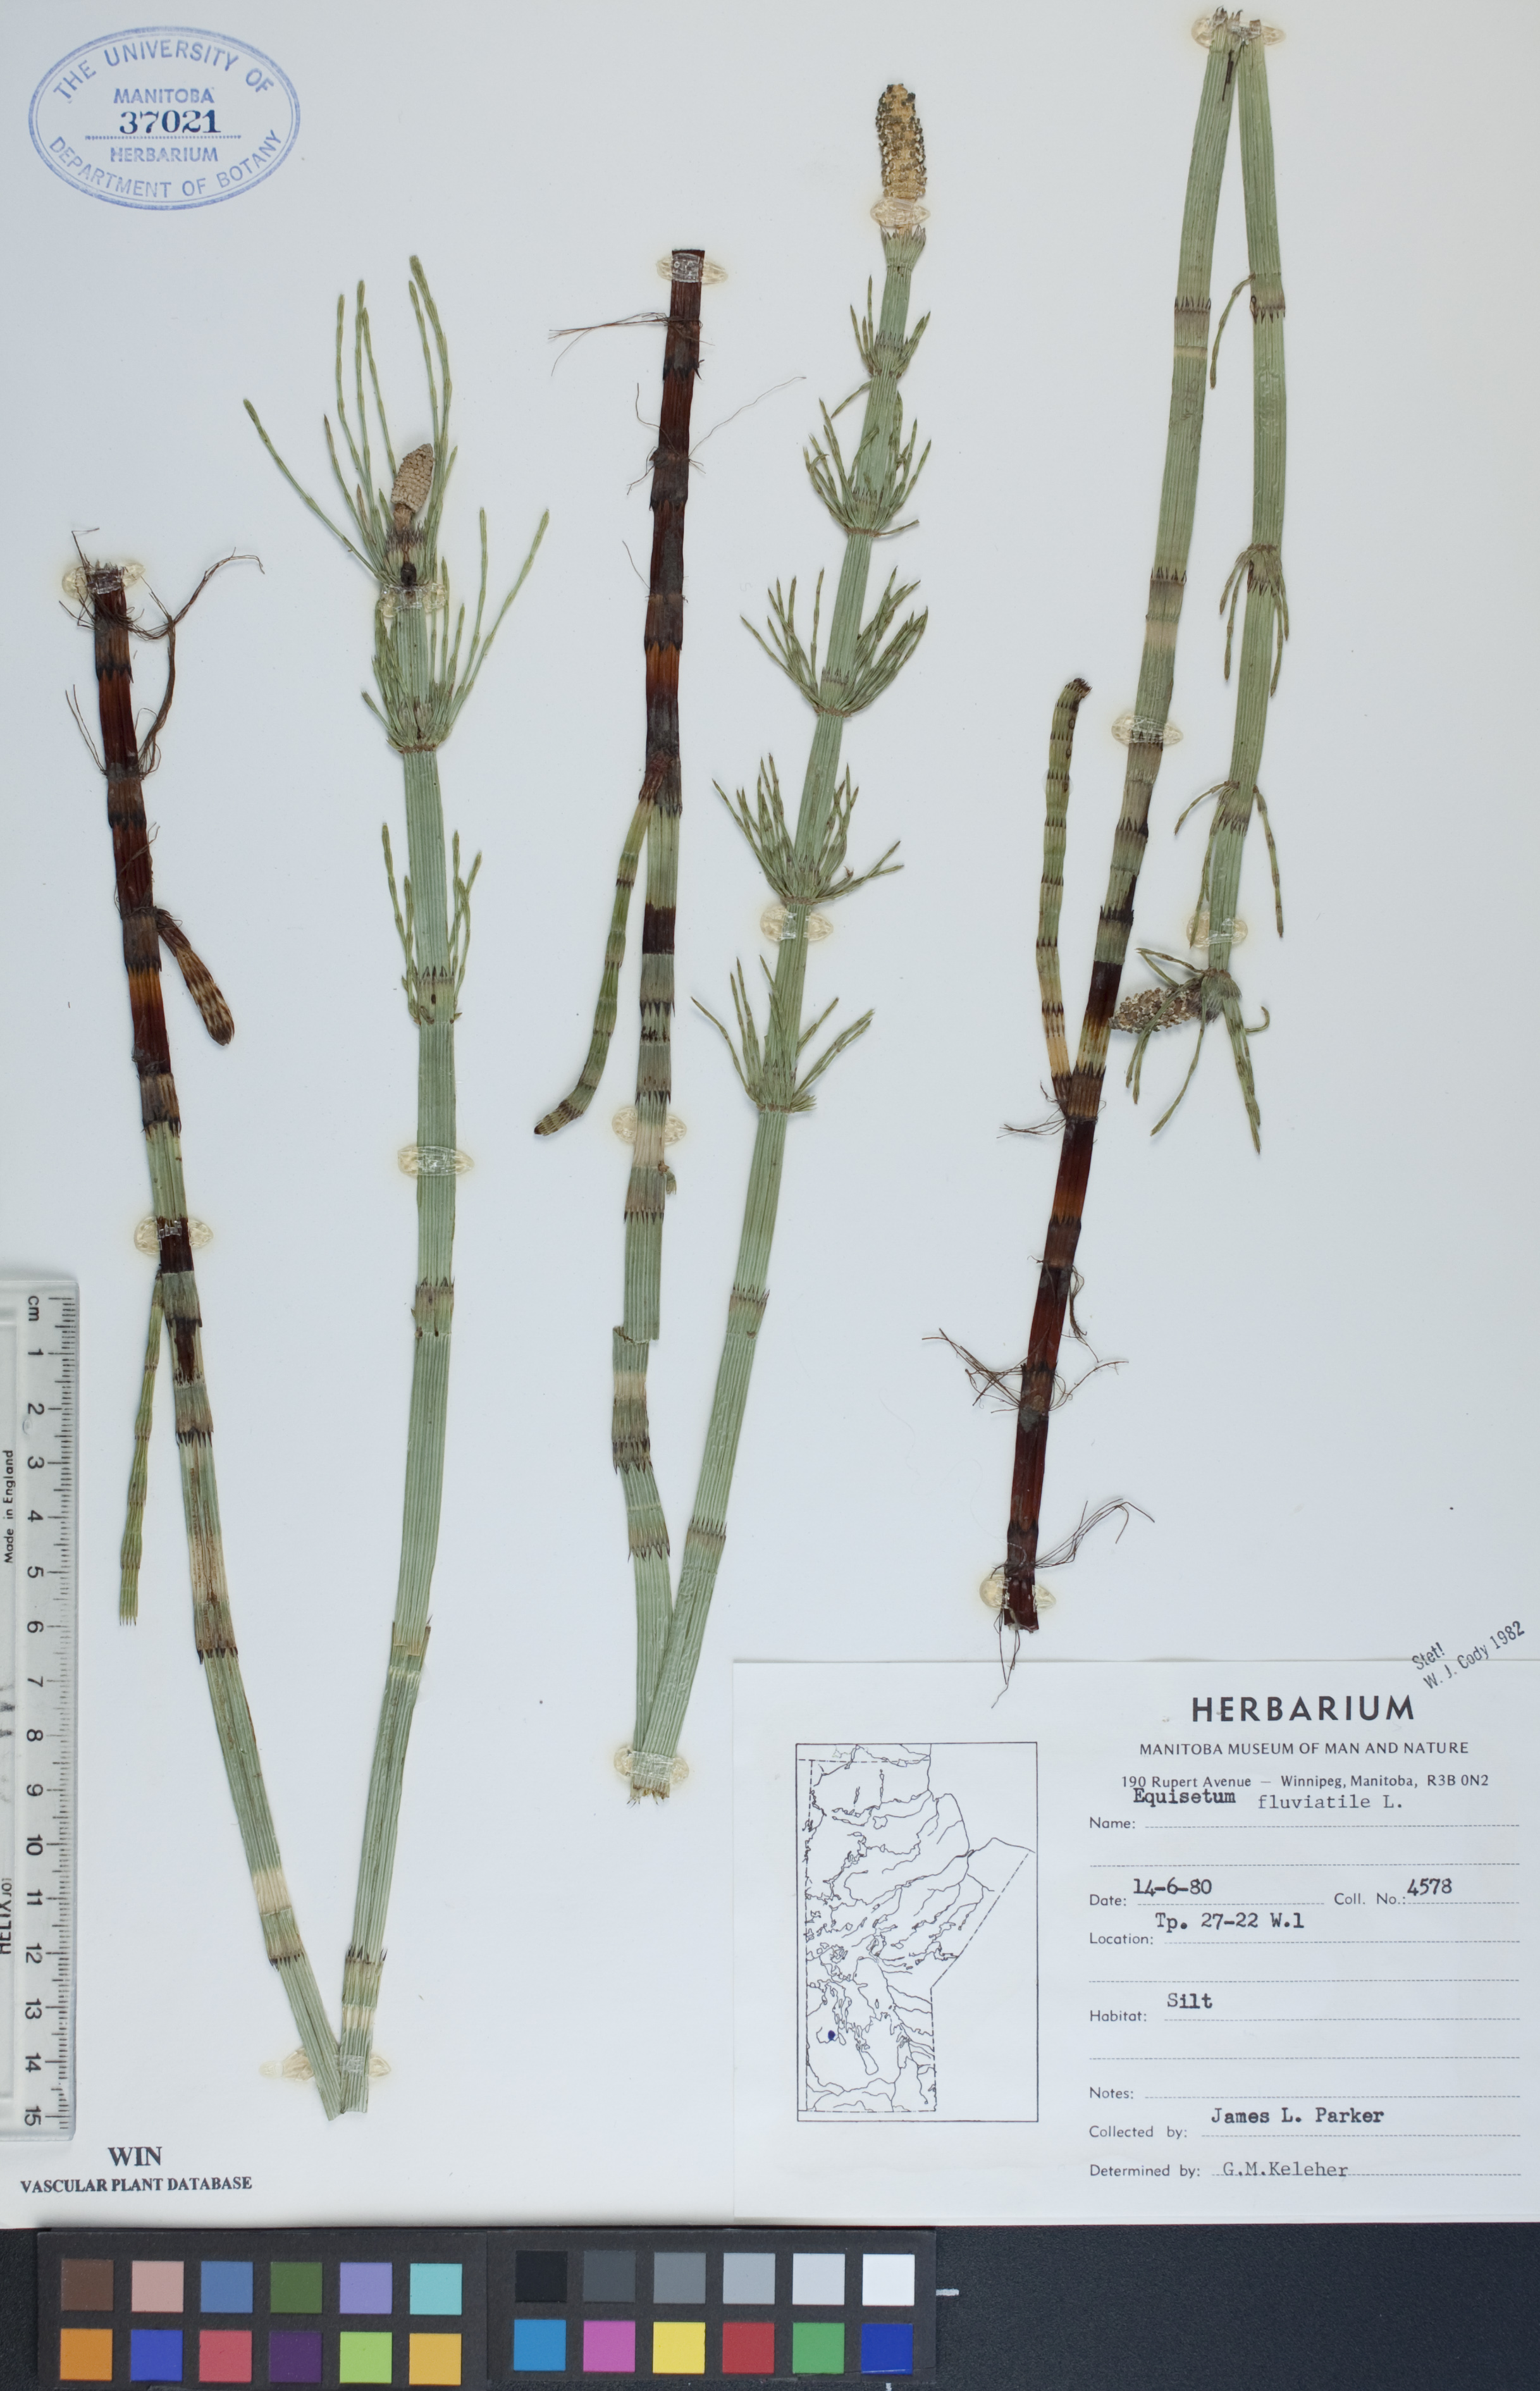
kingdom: Plantae
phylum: Tracheophyta
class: Polypodiopsida
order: Equisetales
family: Equisetaceae
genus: Equisetum
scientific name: Equisetum fluviatile
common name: Water horsetail
